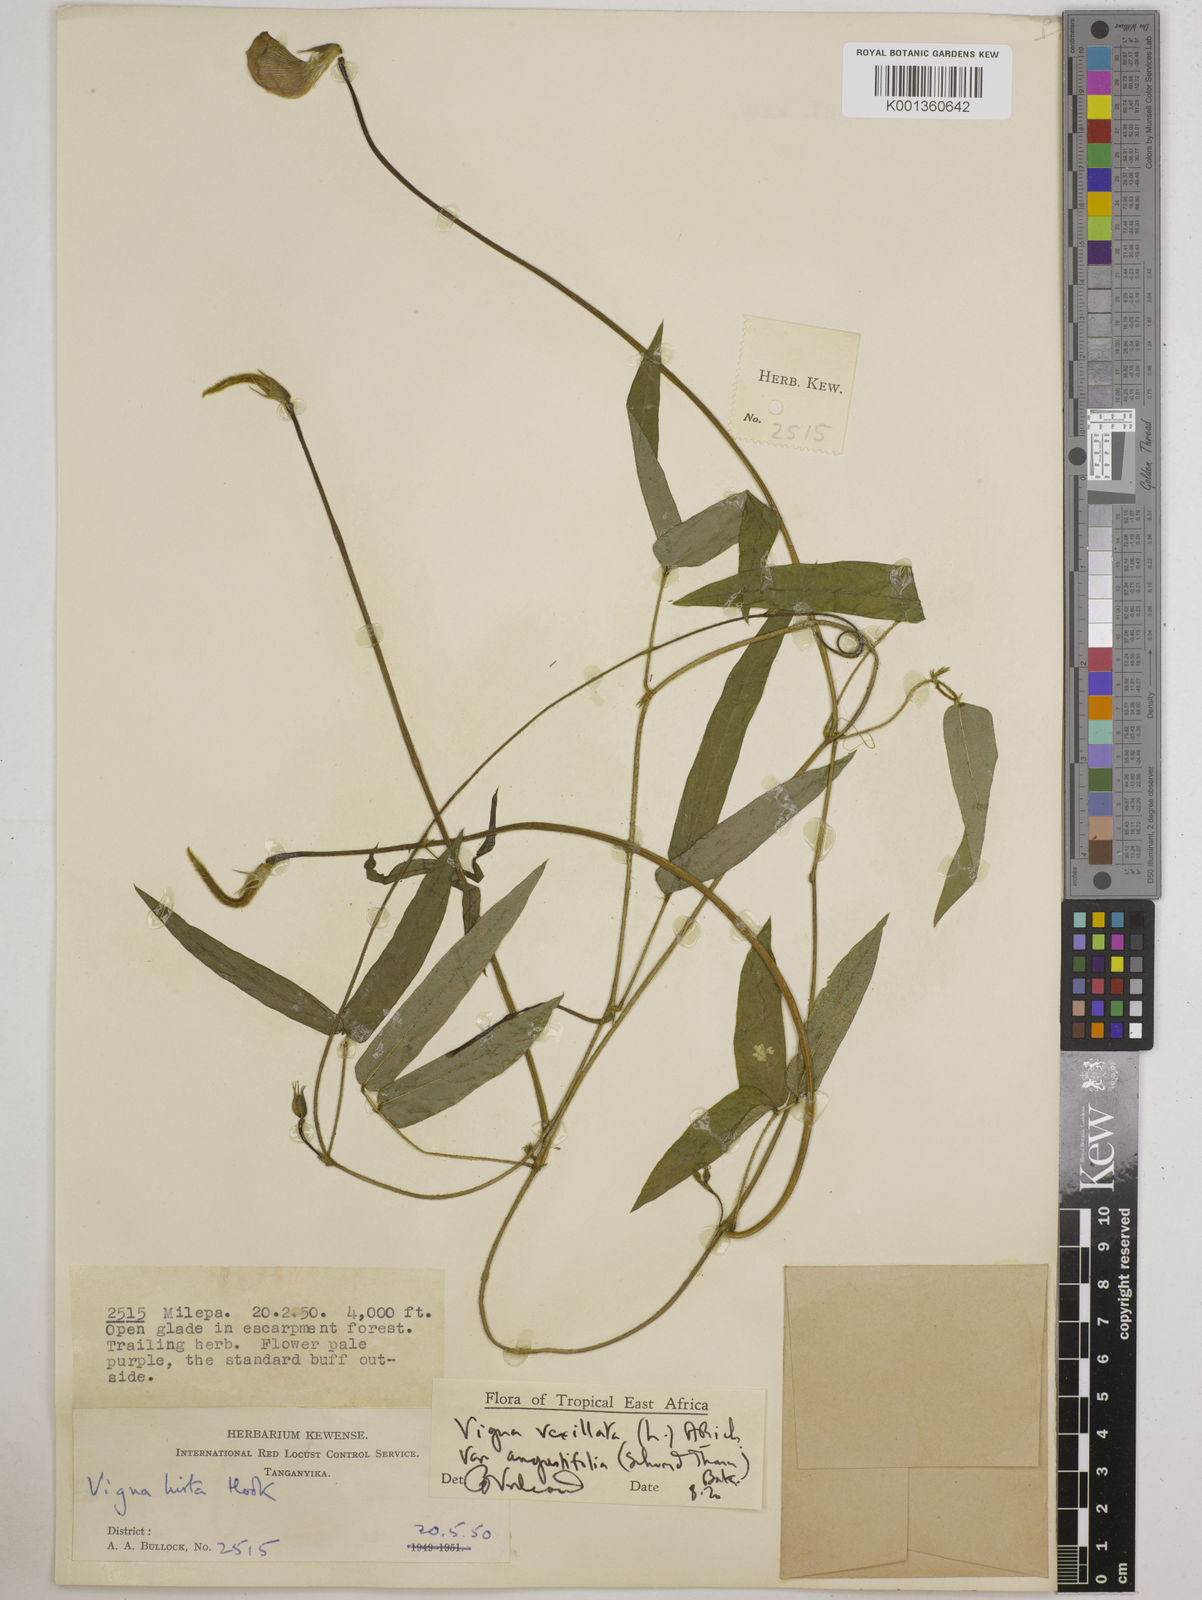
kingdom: Plantae
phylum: Tracheophyta
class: Magnoliopsida
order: Fabales
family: Fabaceae
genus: Vigna
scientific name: Vigna vexillata
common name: Zombi pea
